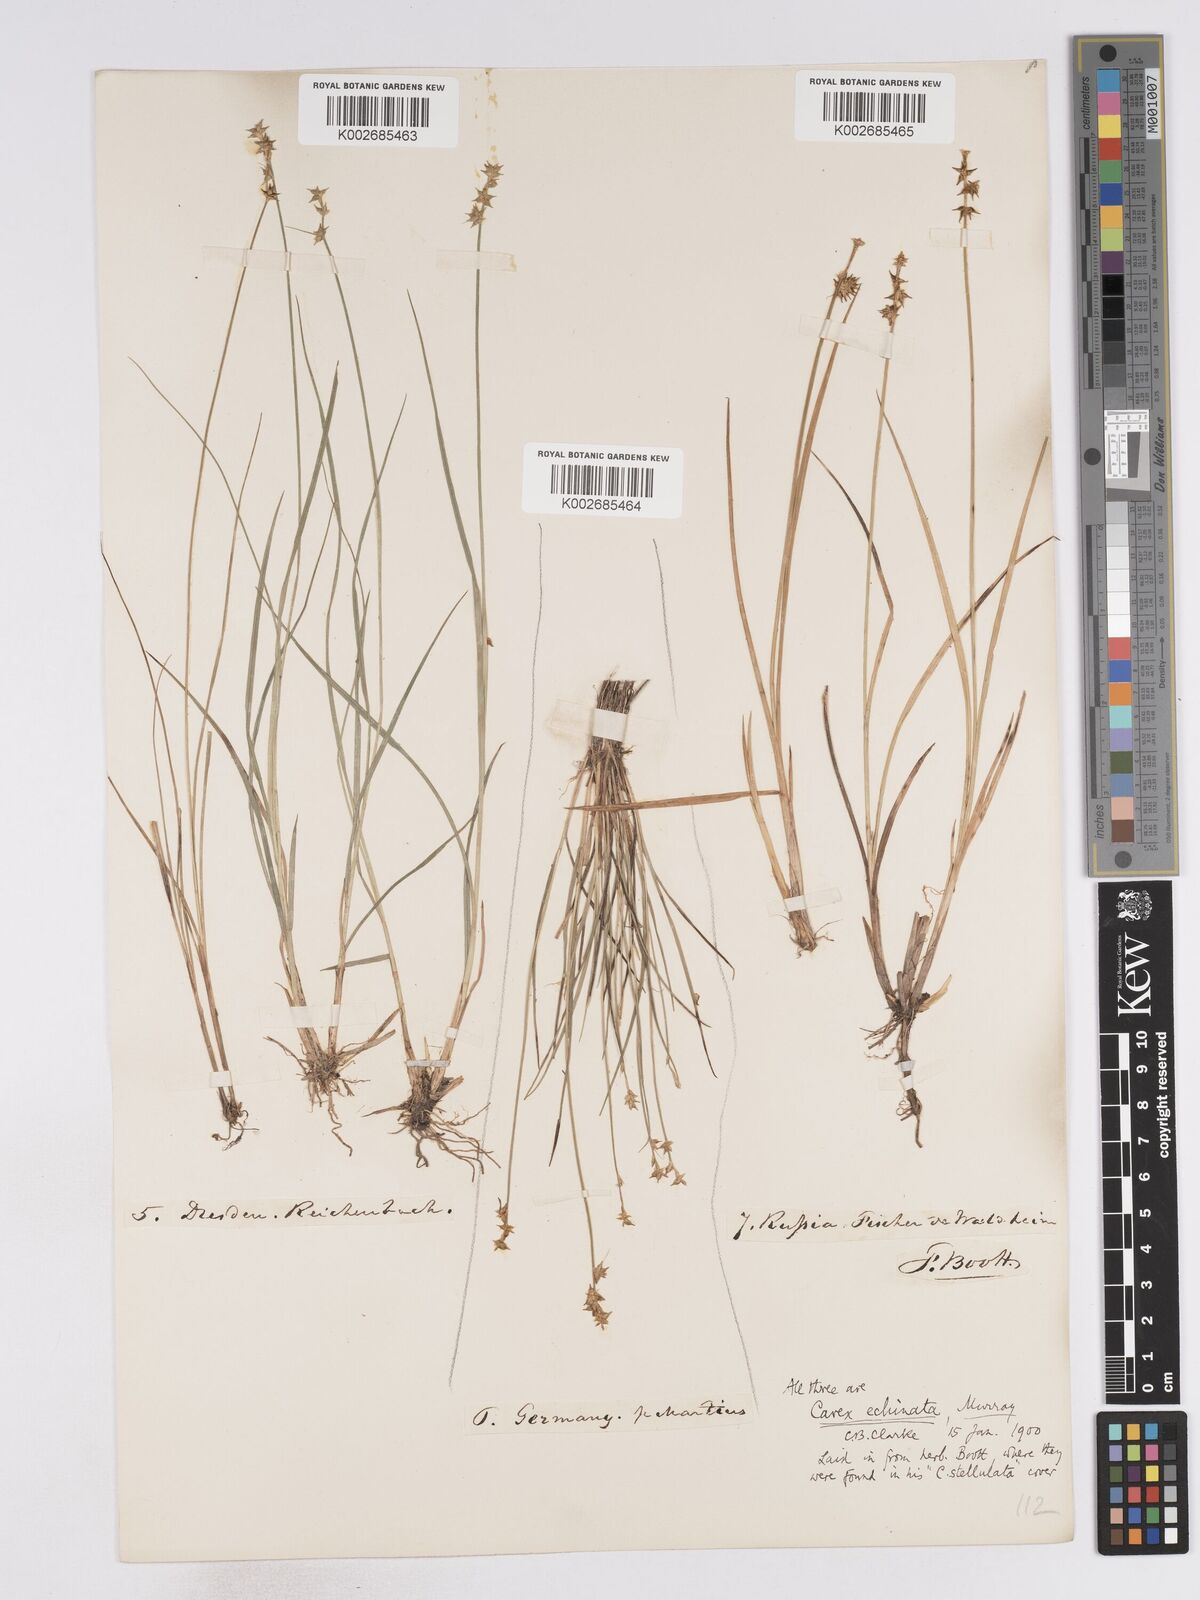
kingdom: Plantae
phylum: Tracheophyta
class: Liliopsida
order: Poales
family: Cyperaceae
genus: Carex
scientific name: Carex echinata
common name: Star sedge
